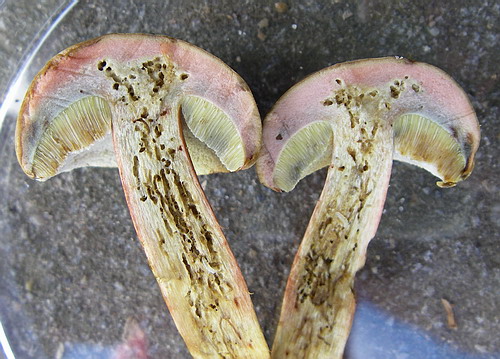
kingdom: Fungi
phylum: Basidiomycota
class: Agaricomycetes
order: Boletales
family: Boletaceae
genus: Hortiboletus
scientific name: Hortiboletus bubalinus
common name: aurora-rørhat
